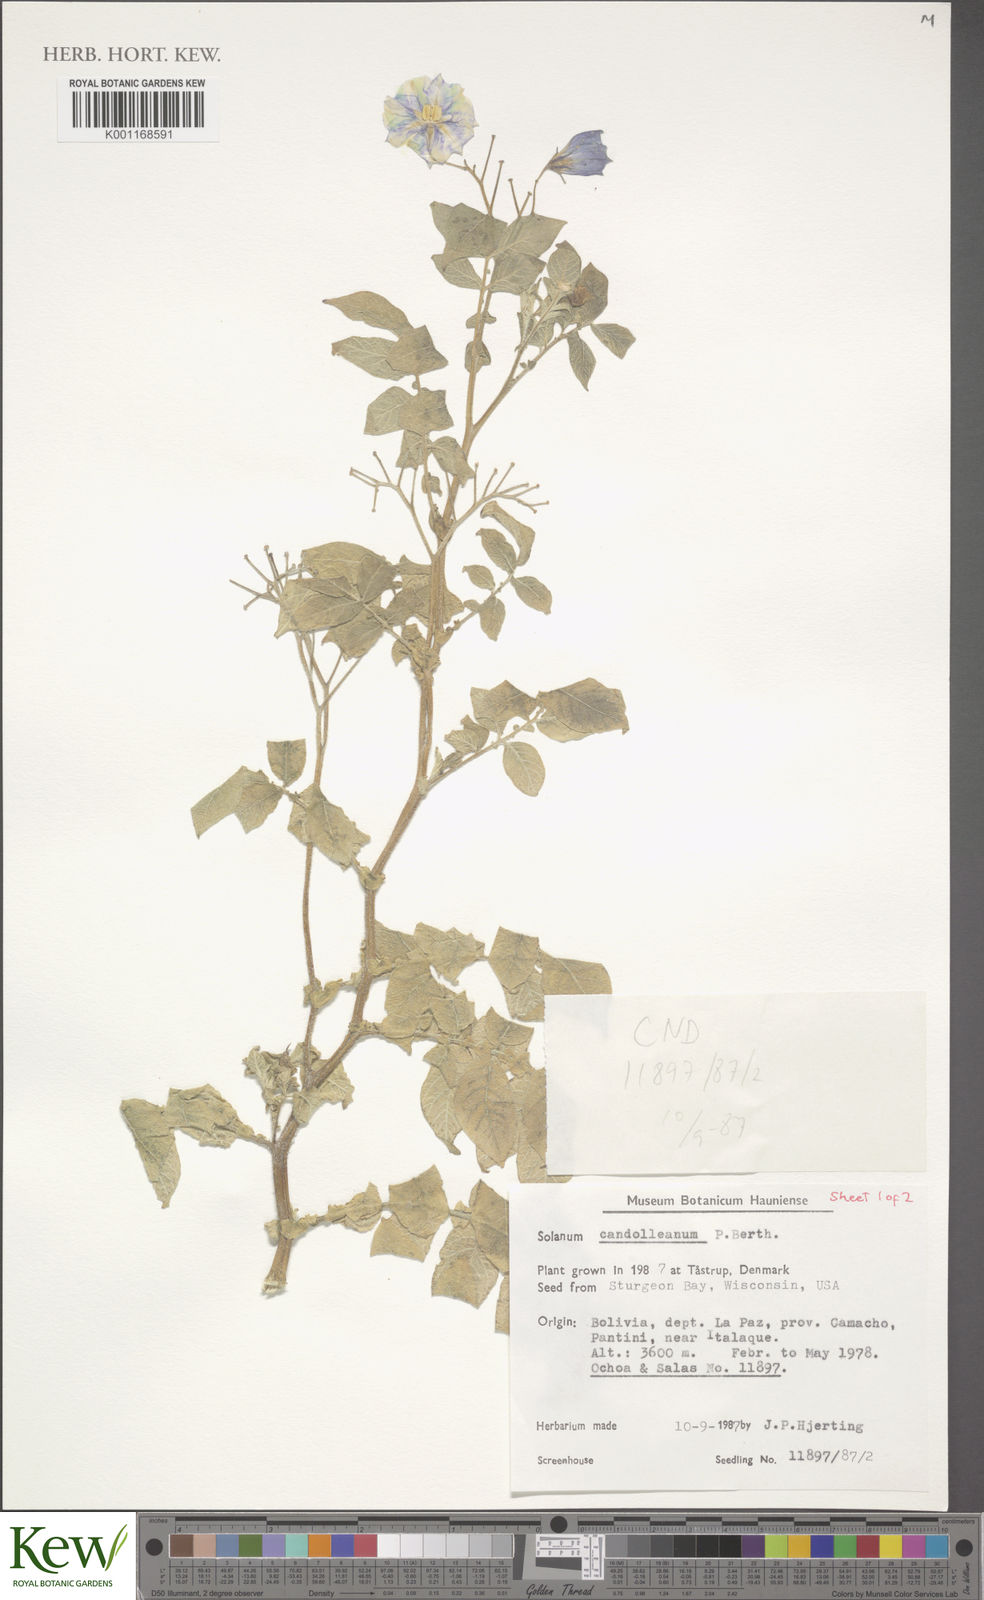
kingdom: Plantae
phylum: Tracheophyta
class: Magnoliopsida
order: Solanales
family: Solanaceae
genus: Solanum
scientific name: Solanum candolleanum
